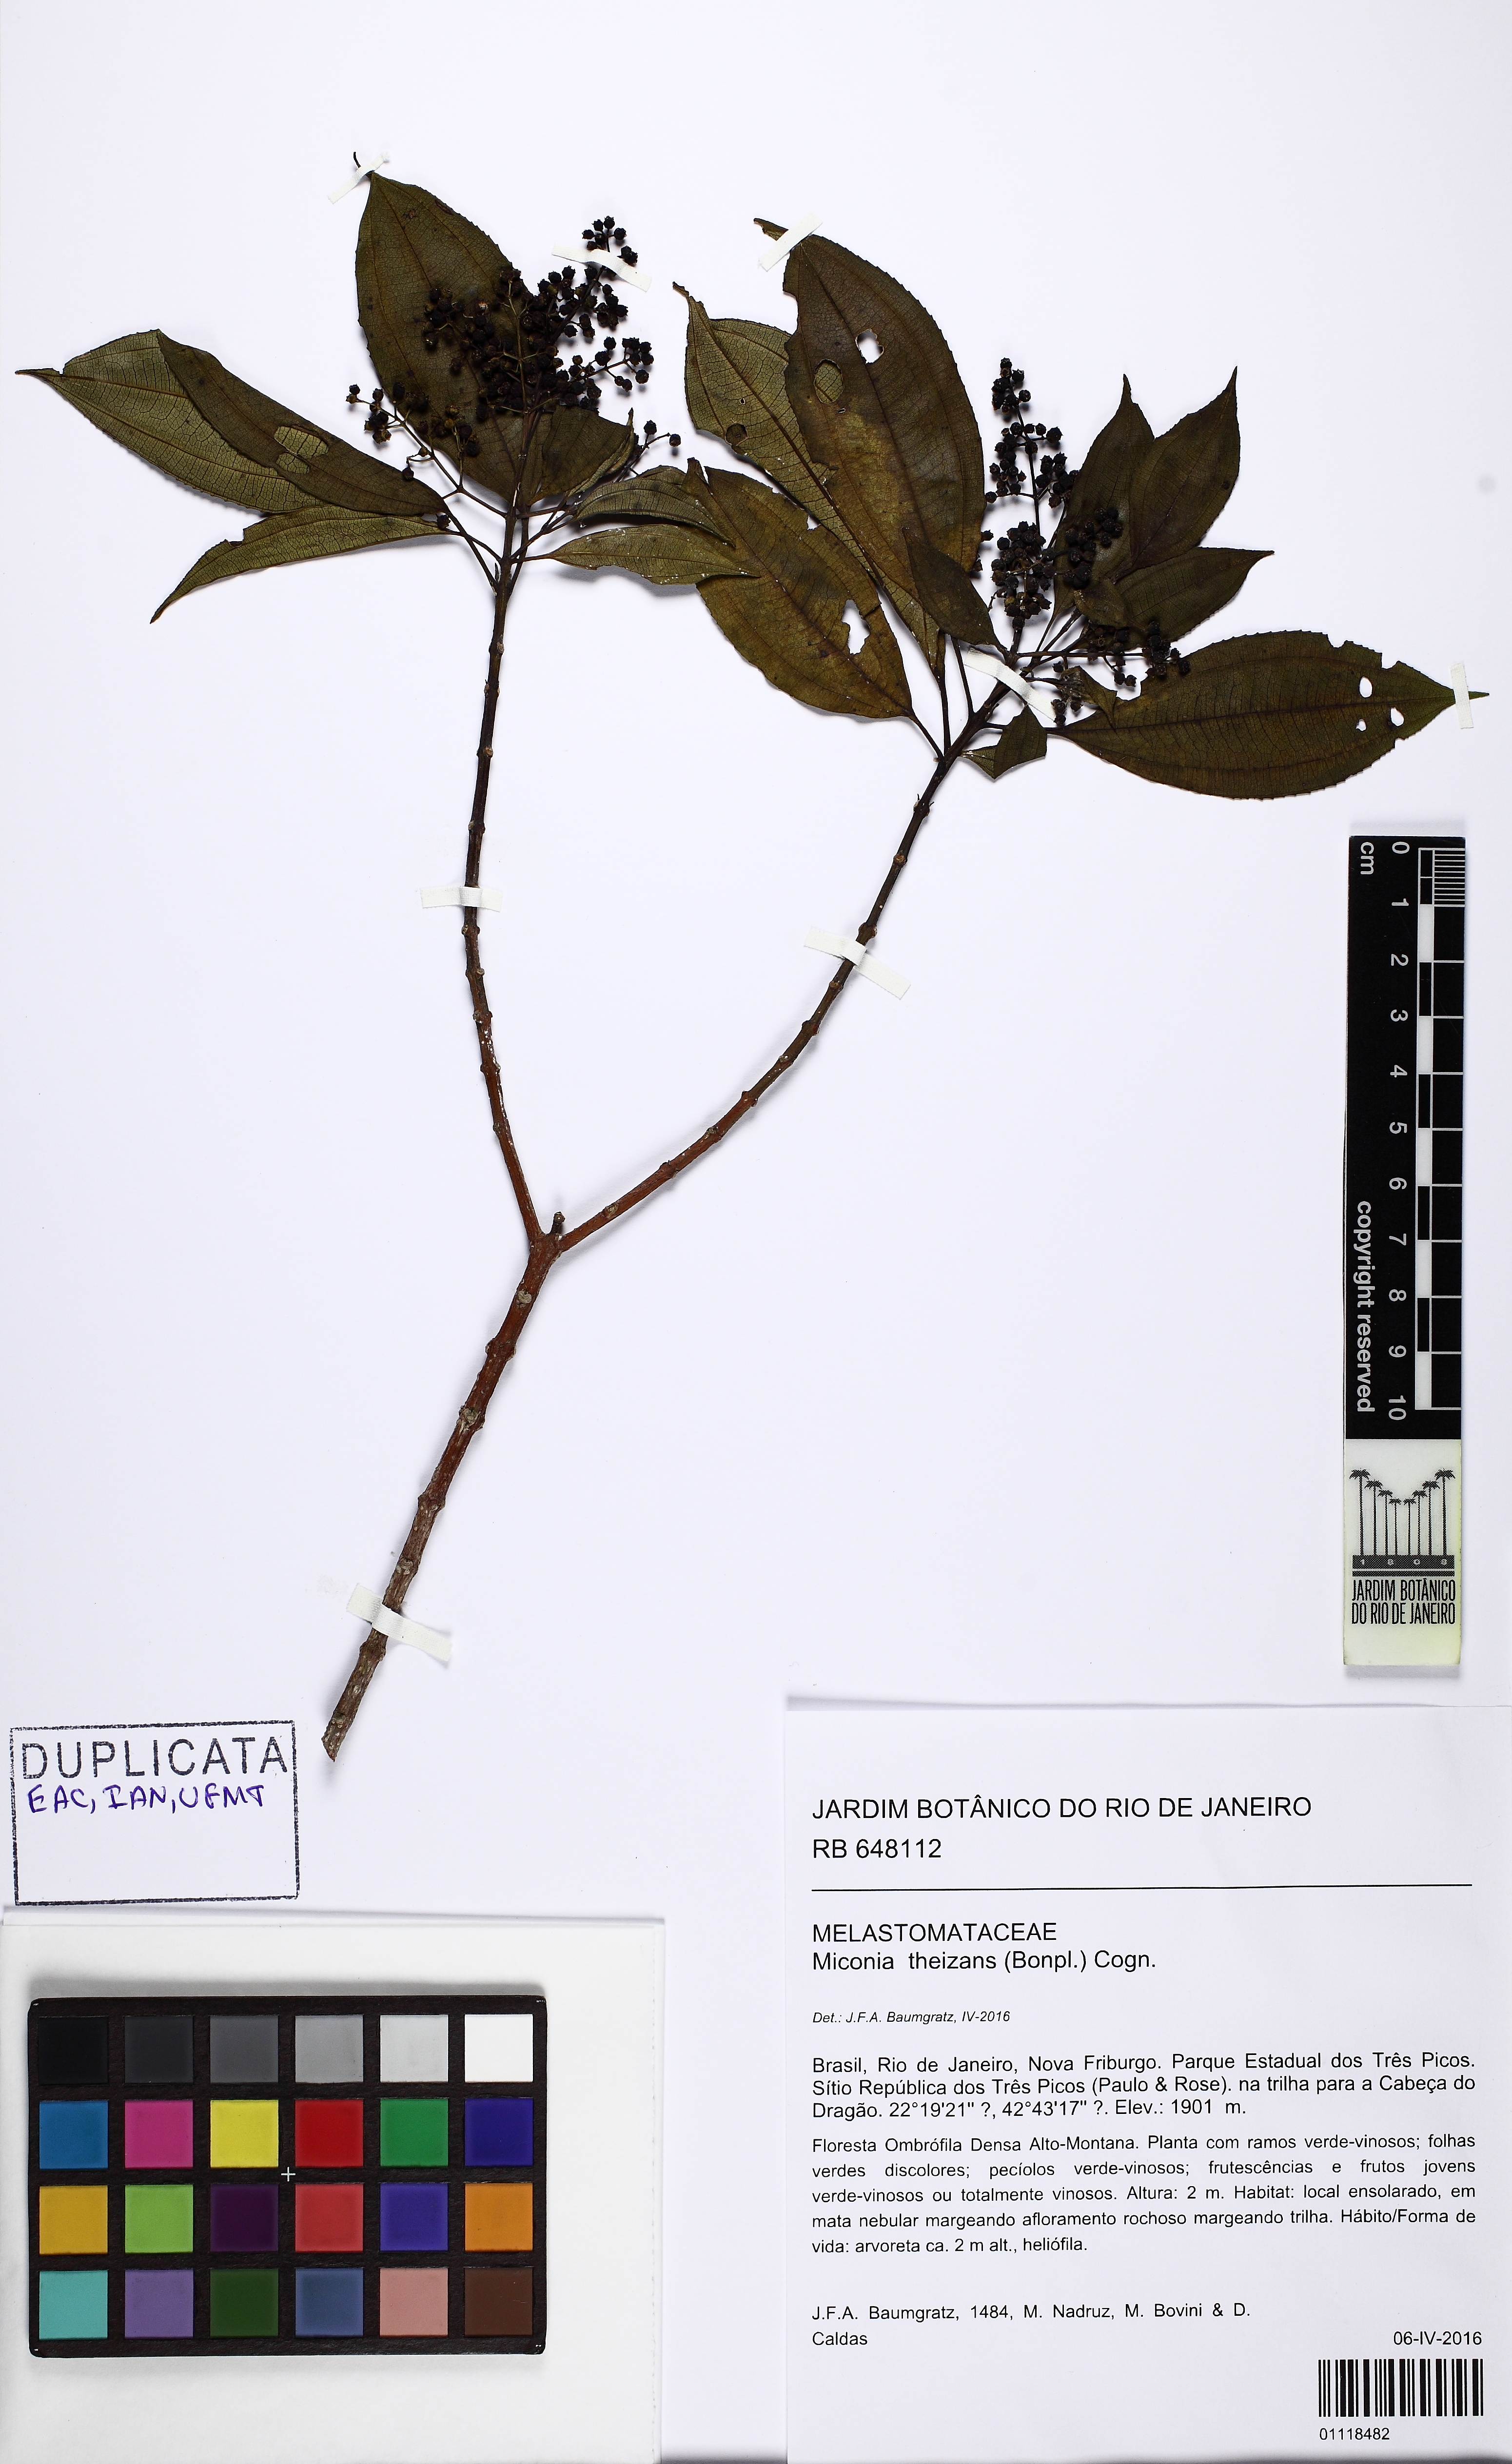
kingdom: Plantae
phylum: Tracheophyta
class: Magnoliopsida
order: Myrtales
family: Melastomataceae
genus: Miconia
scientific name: Miconia theizans
